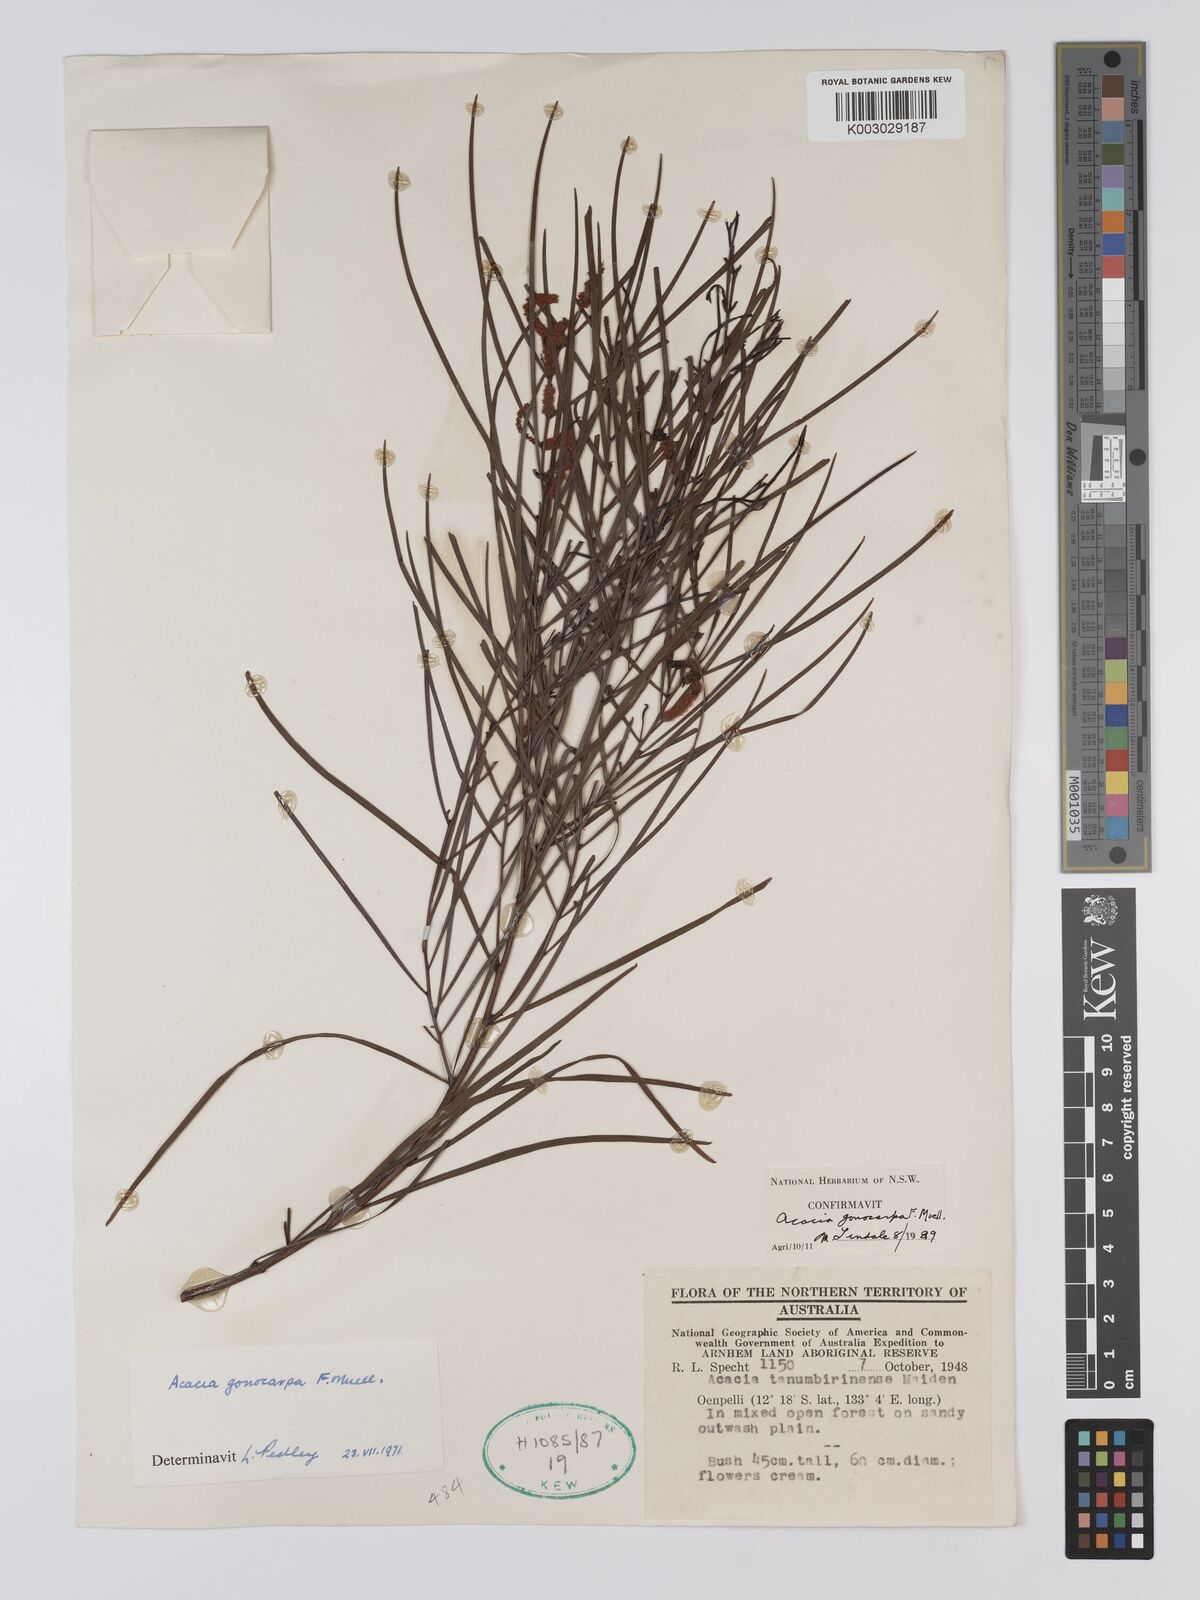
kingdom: Plantae
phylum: Tracheophyta
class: Magnoliopsida
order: Fabales
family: Fabaceae
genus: Acacia
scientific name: Acacia gonocarpa
